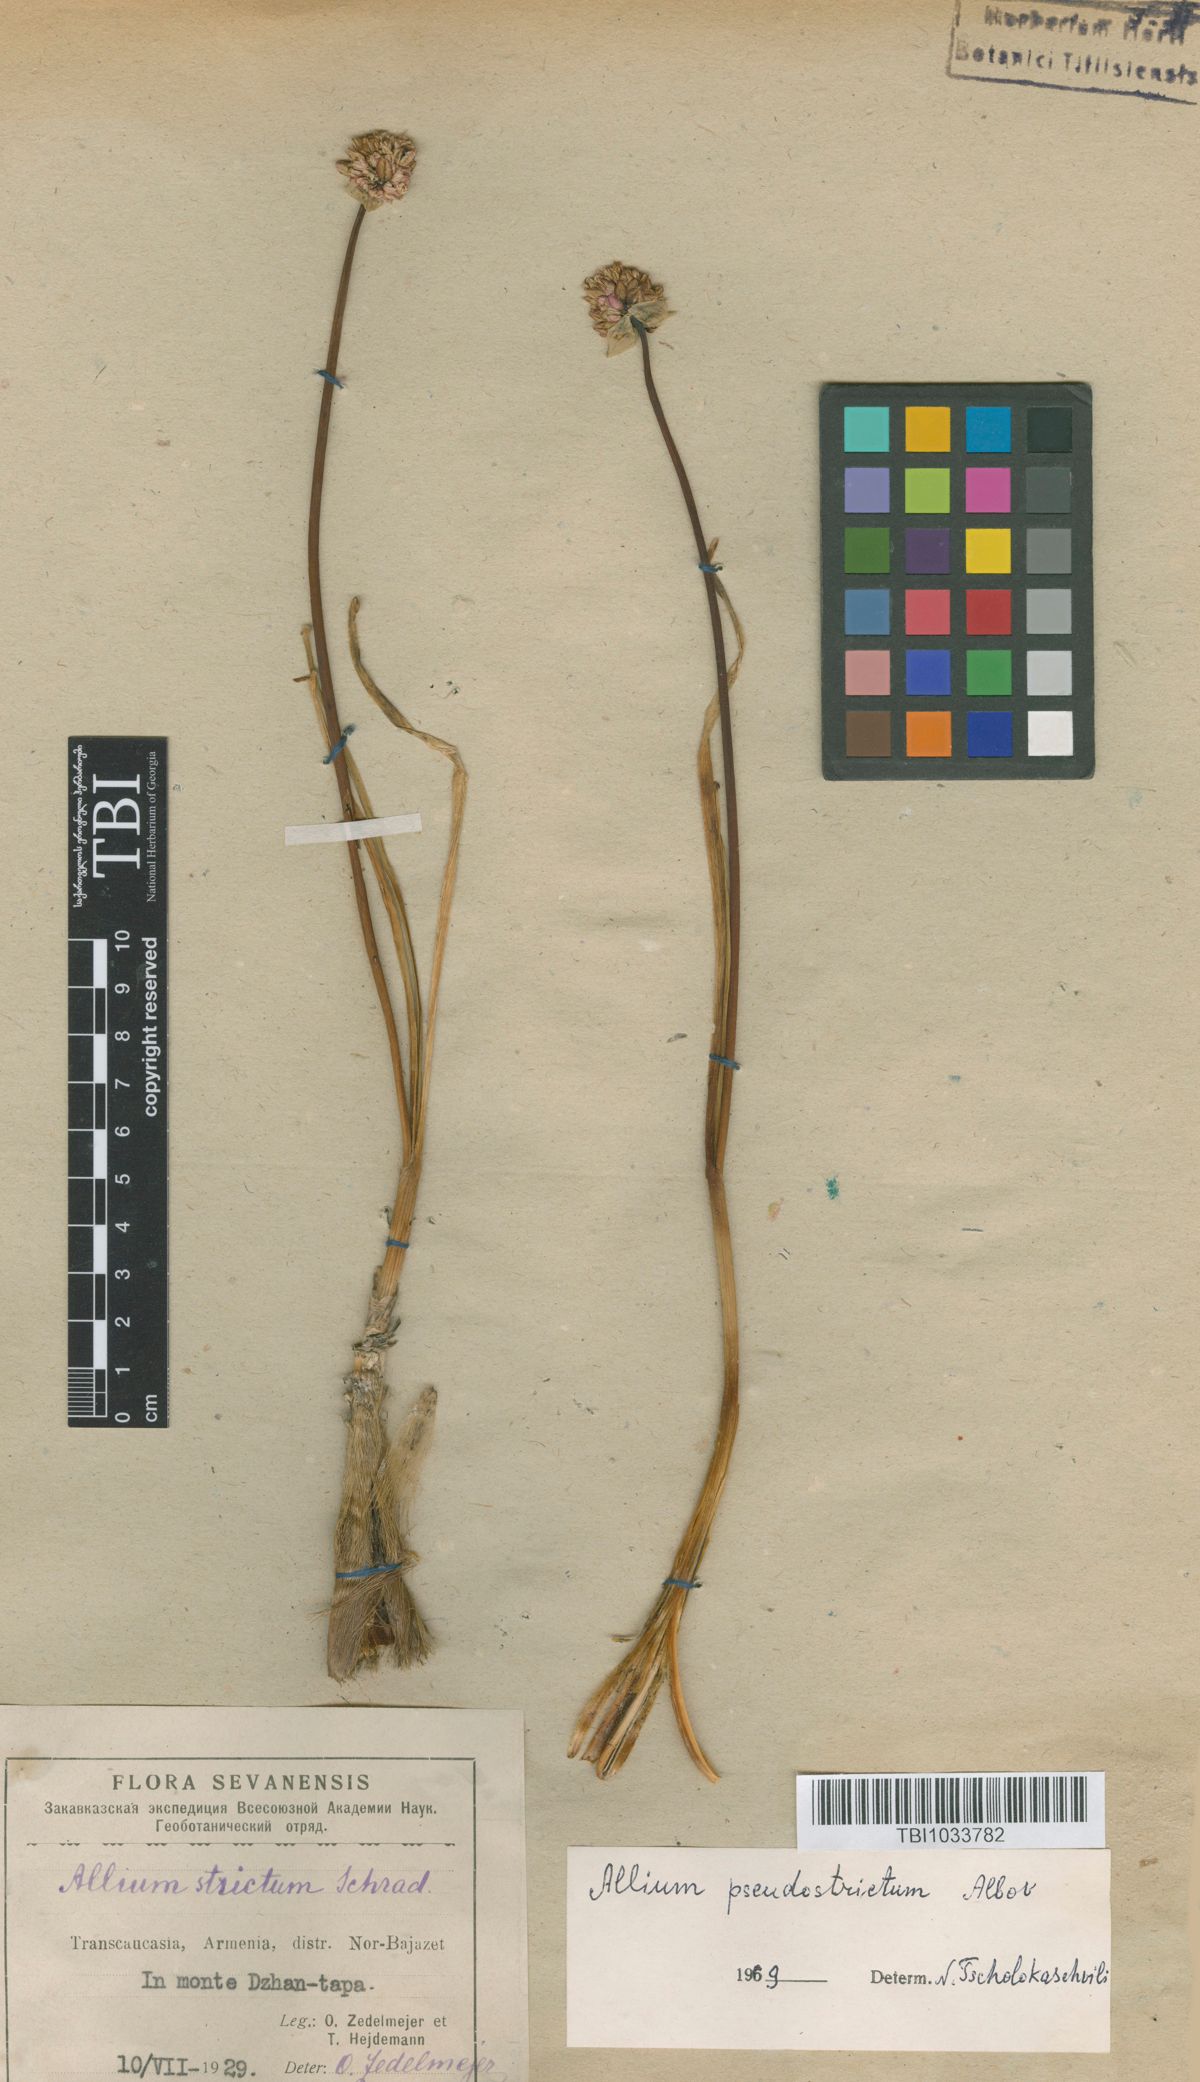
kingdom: Plantae
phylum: Tracheophyta
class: Liliopsida
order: Asparagales
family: Amaryllidaceae
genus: Allium
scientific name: Allium pseudostrictum
